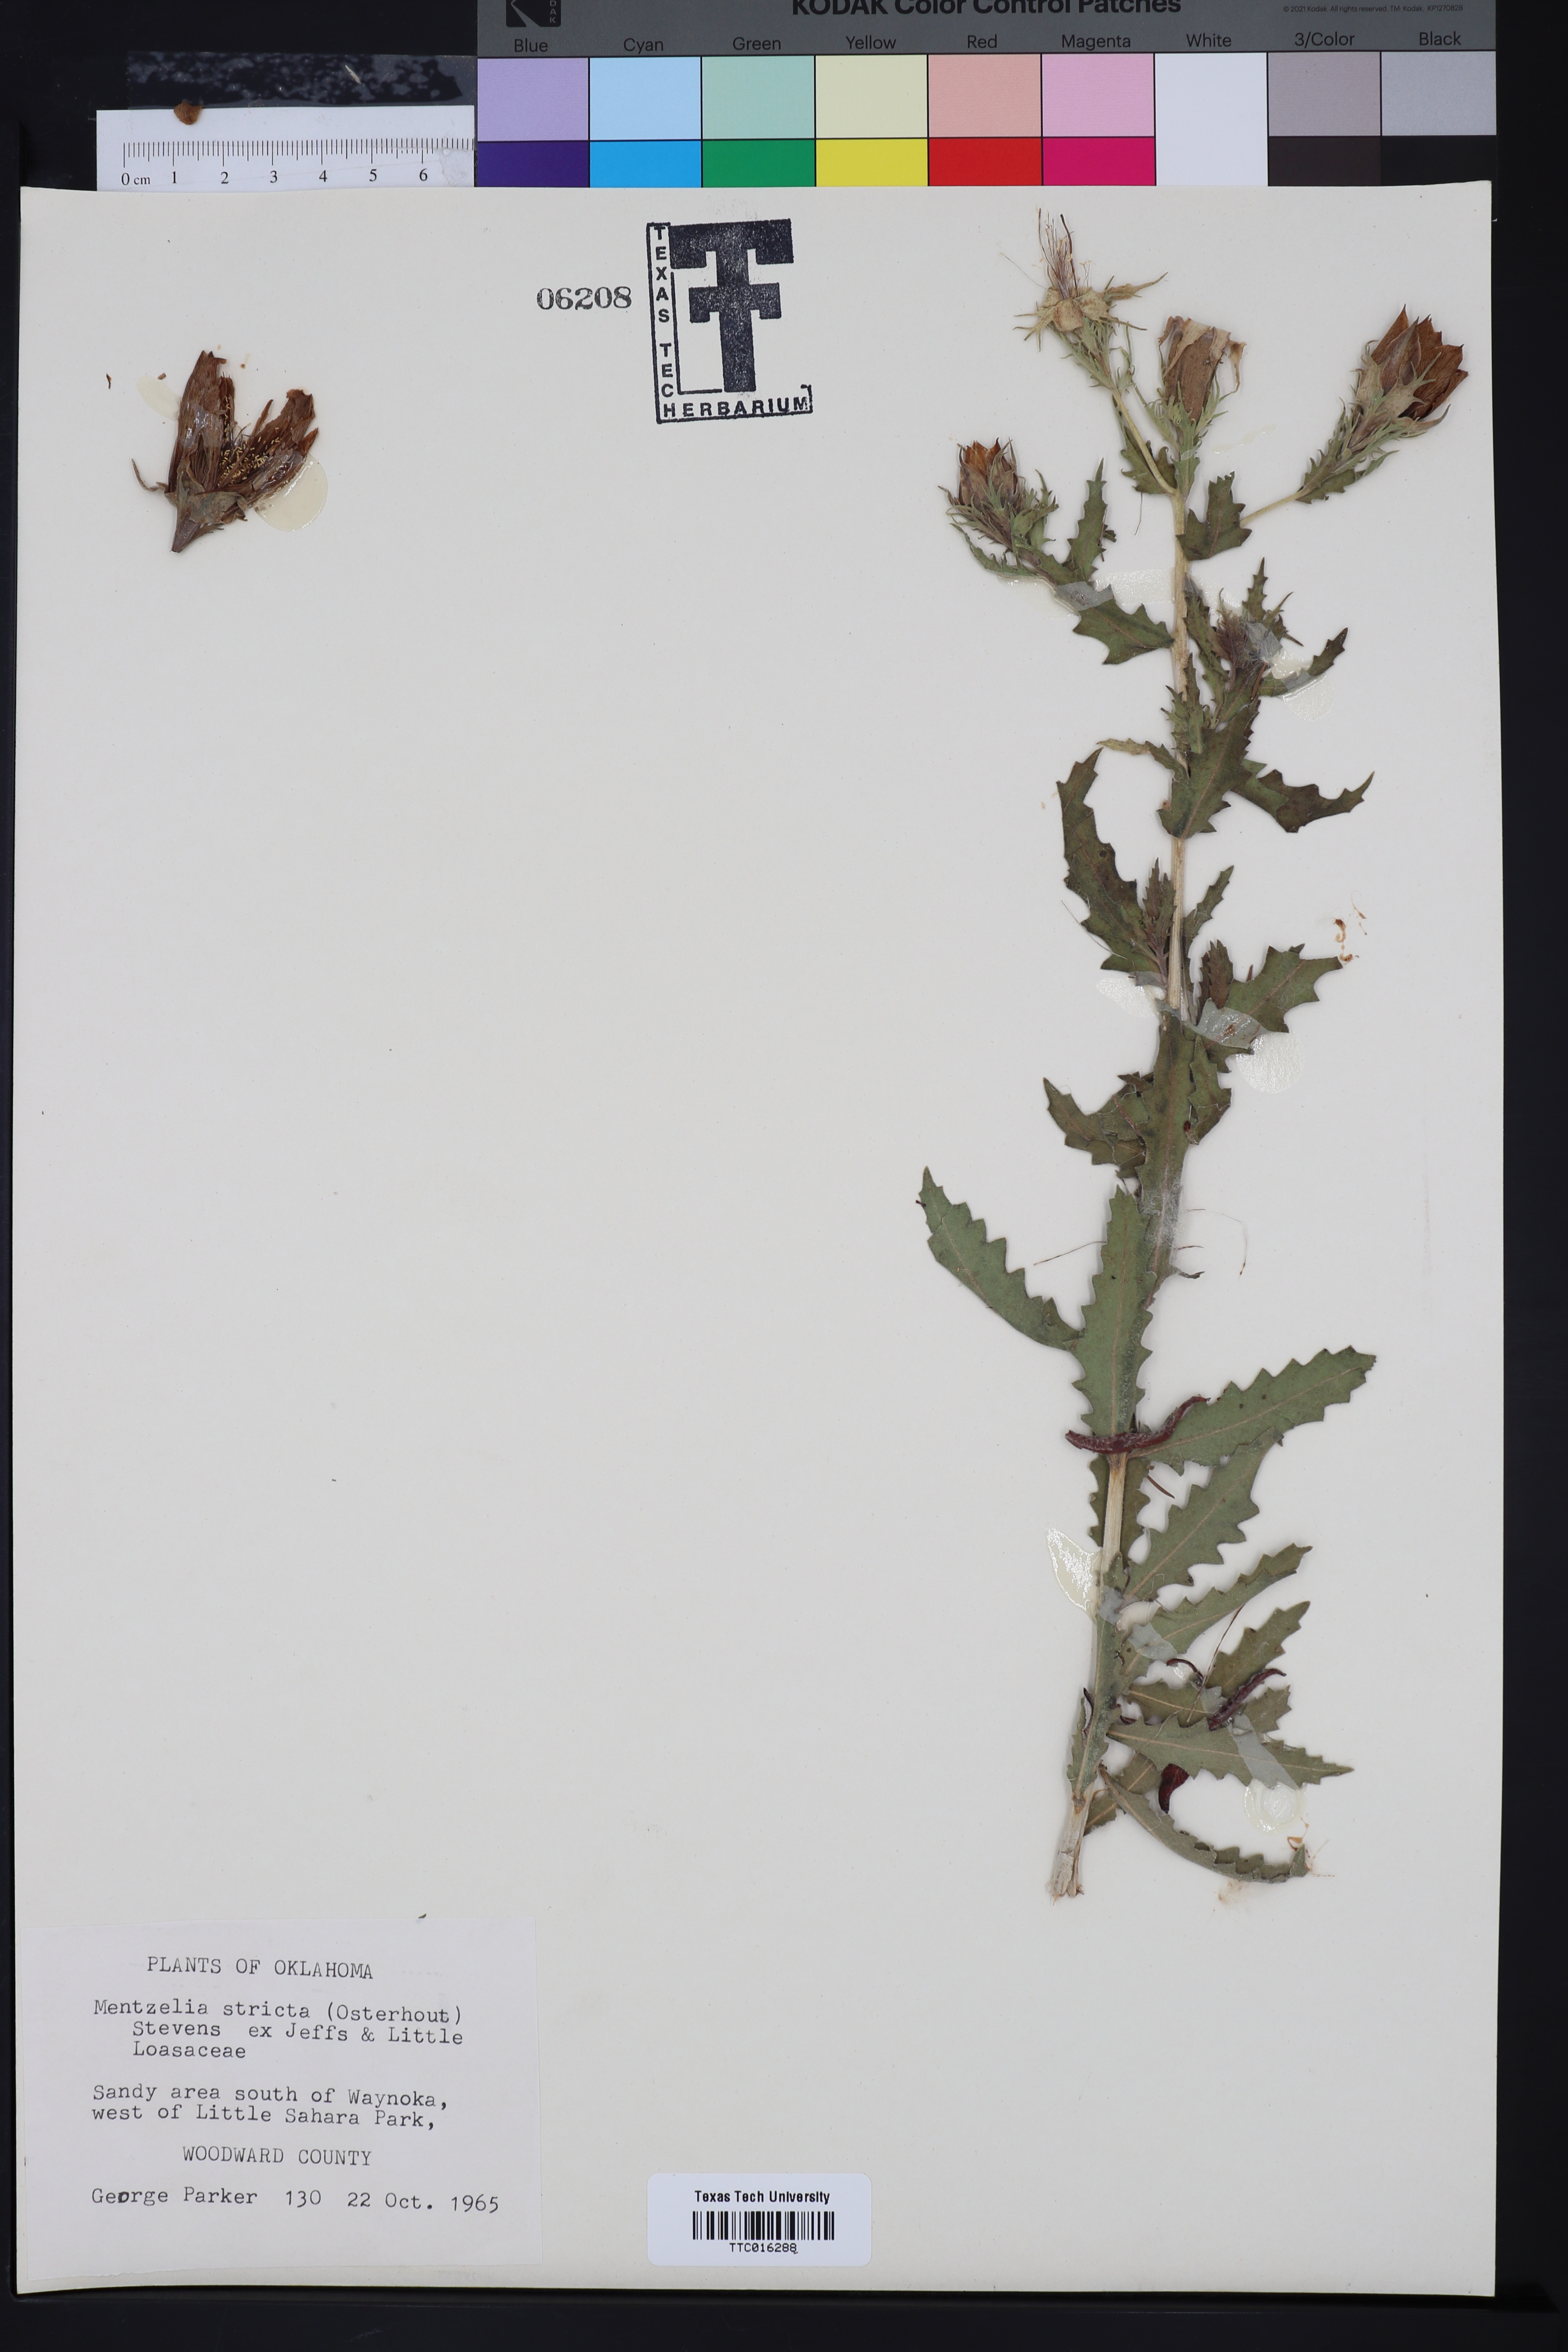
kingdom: Plantae
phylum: Tracheophyta
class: Magnoliopsida
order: Cornales
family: Loasaceae
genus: Mentzelia
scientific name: Mentzelia nuda
